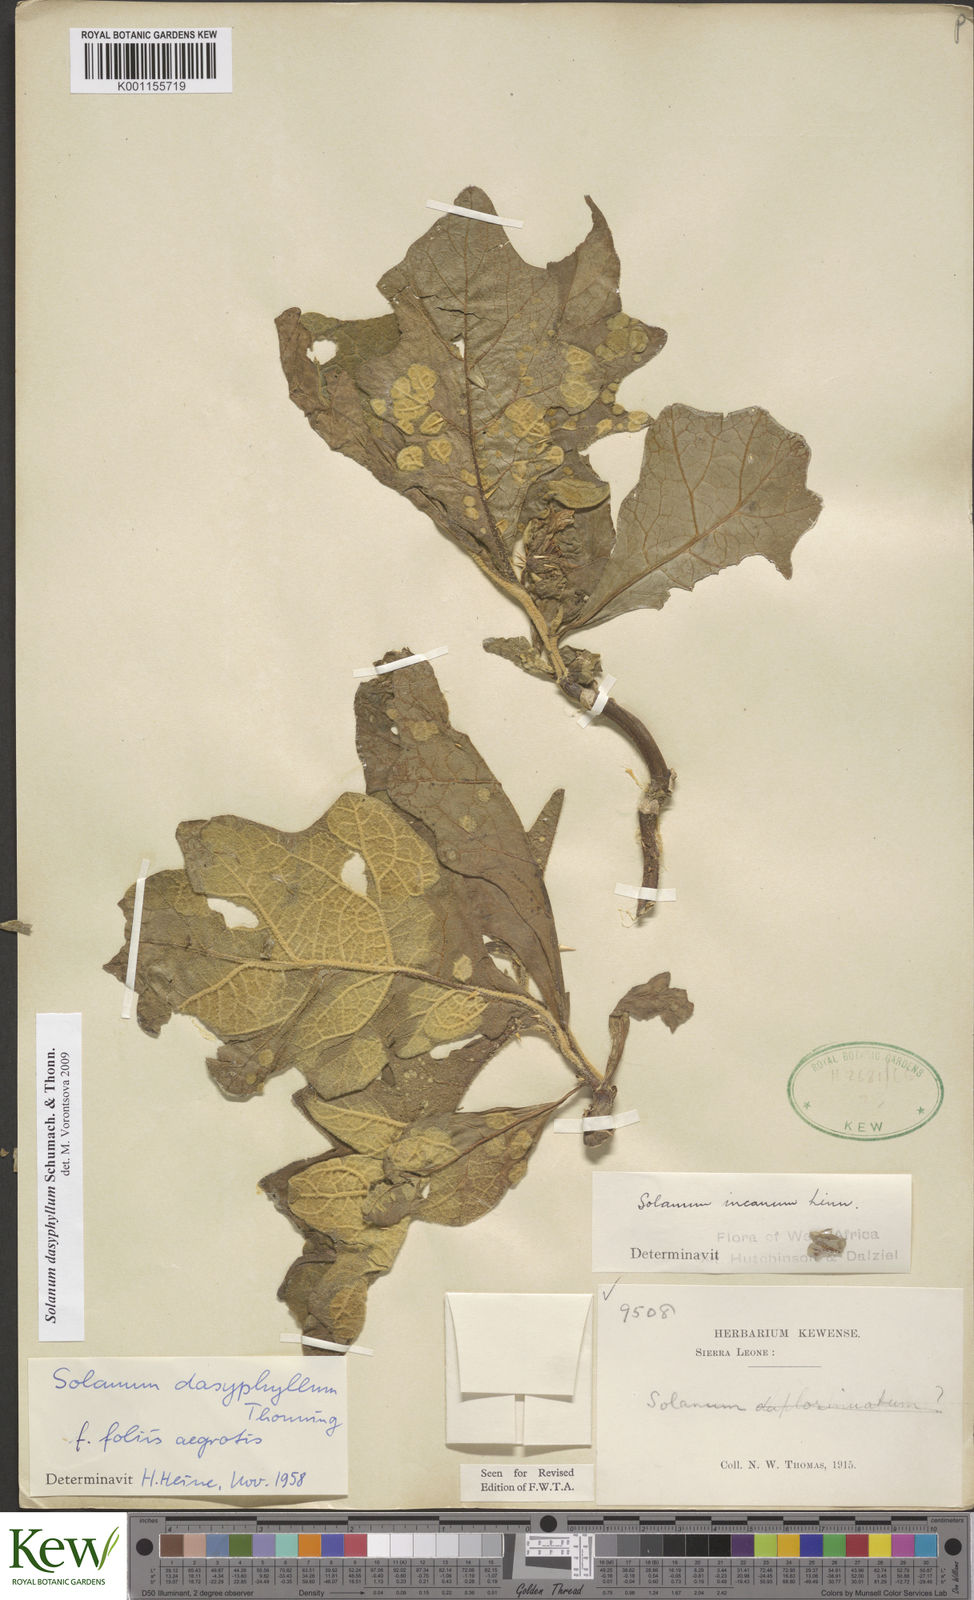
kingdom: Plantae
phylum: Tracheophyta
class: Magnoliopsida
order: Solanales
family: Solanaceae
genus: Solanum
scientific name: Solanum dasyphyllum
